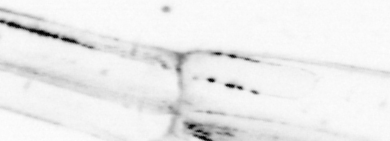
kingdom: Animalia
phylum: Chaetognatha
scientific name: Chaetognatha
